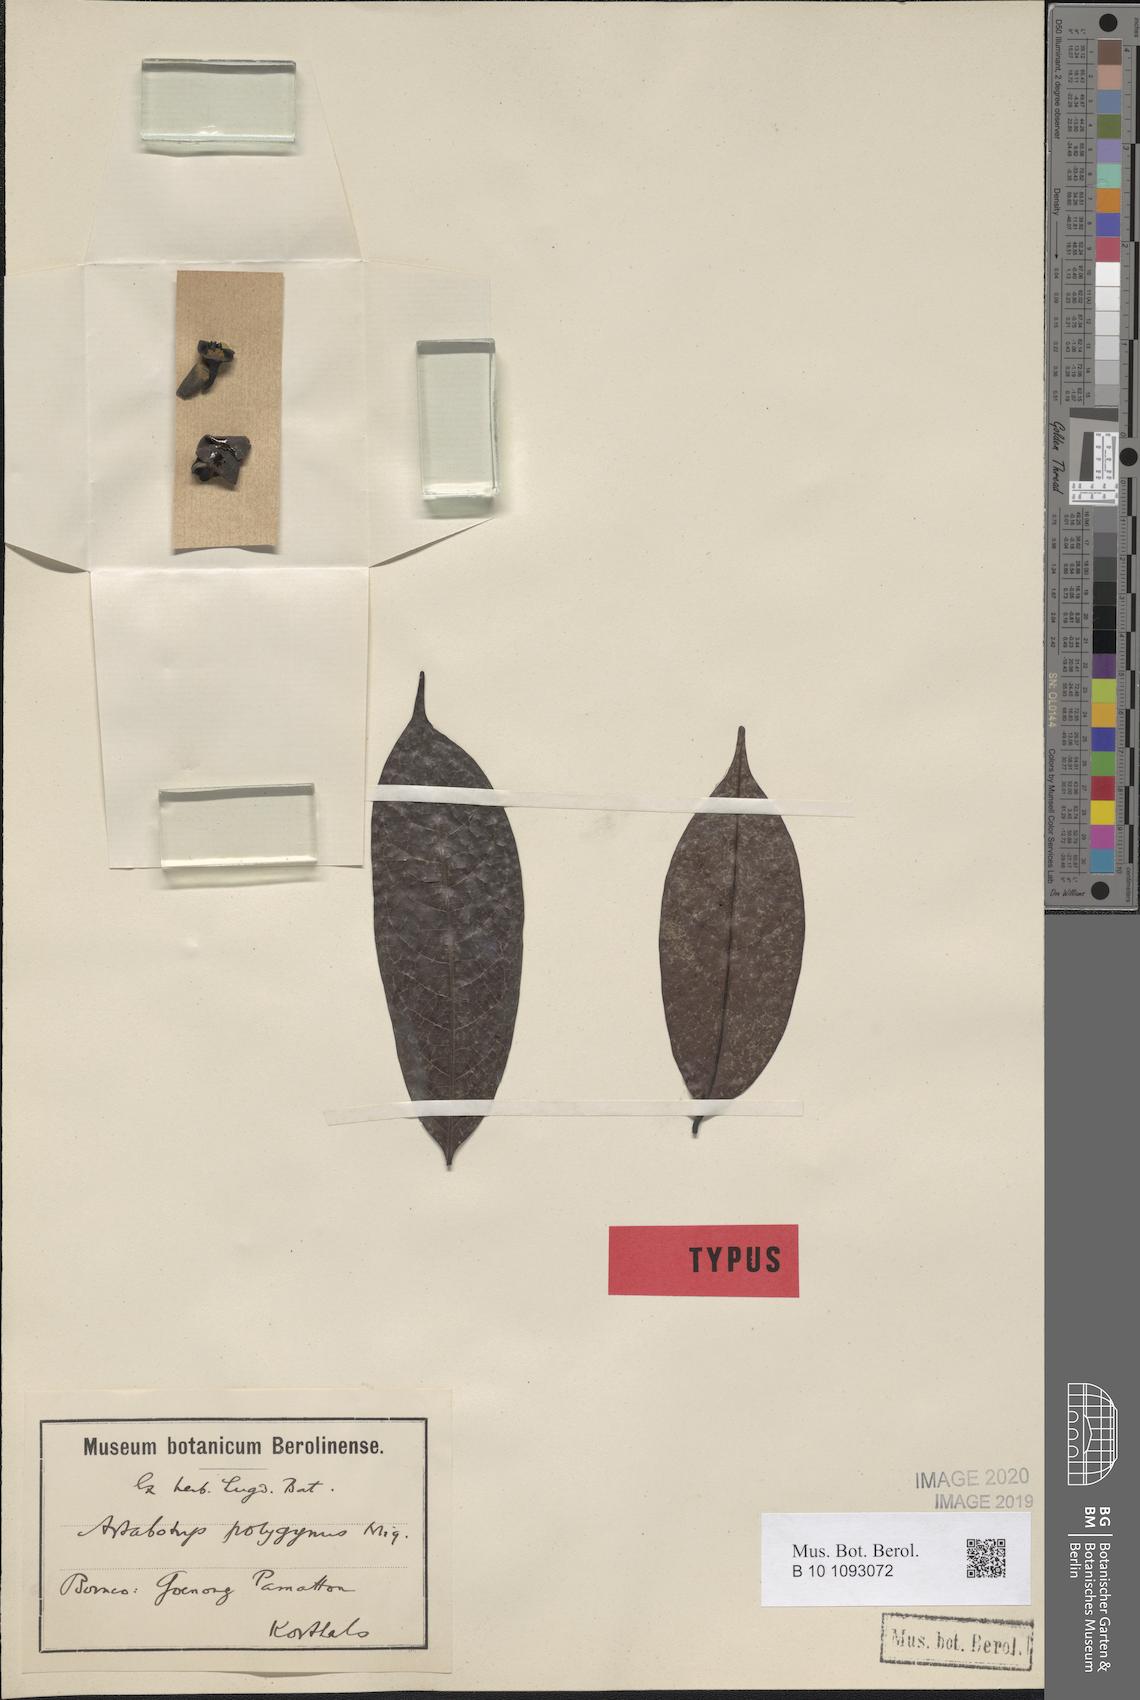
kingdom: Plantae
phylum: Tracheophyta
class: Magnoliopsida
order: Magnoliales
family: Annonaceae
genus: Artabotrys
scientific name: Artabotrys polygynus
